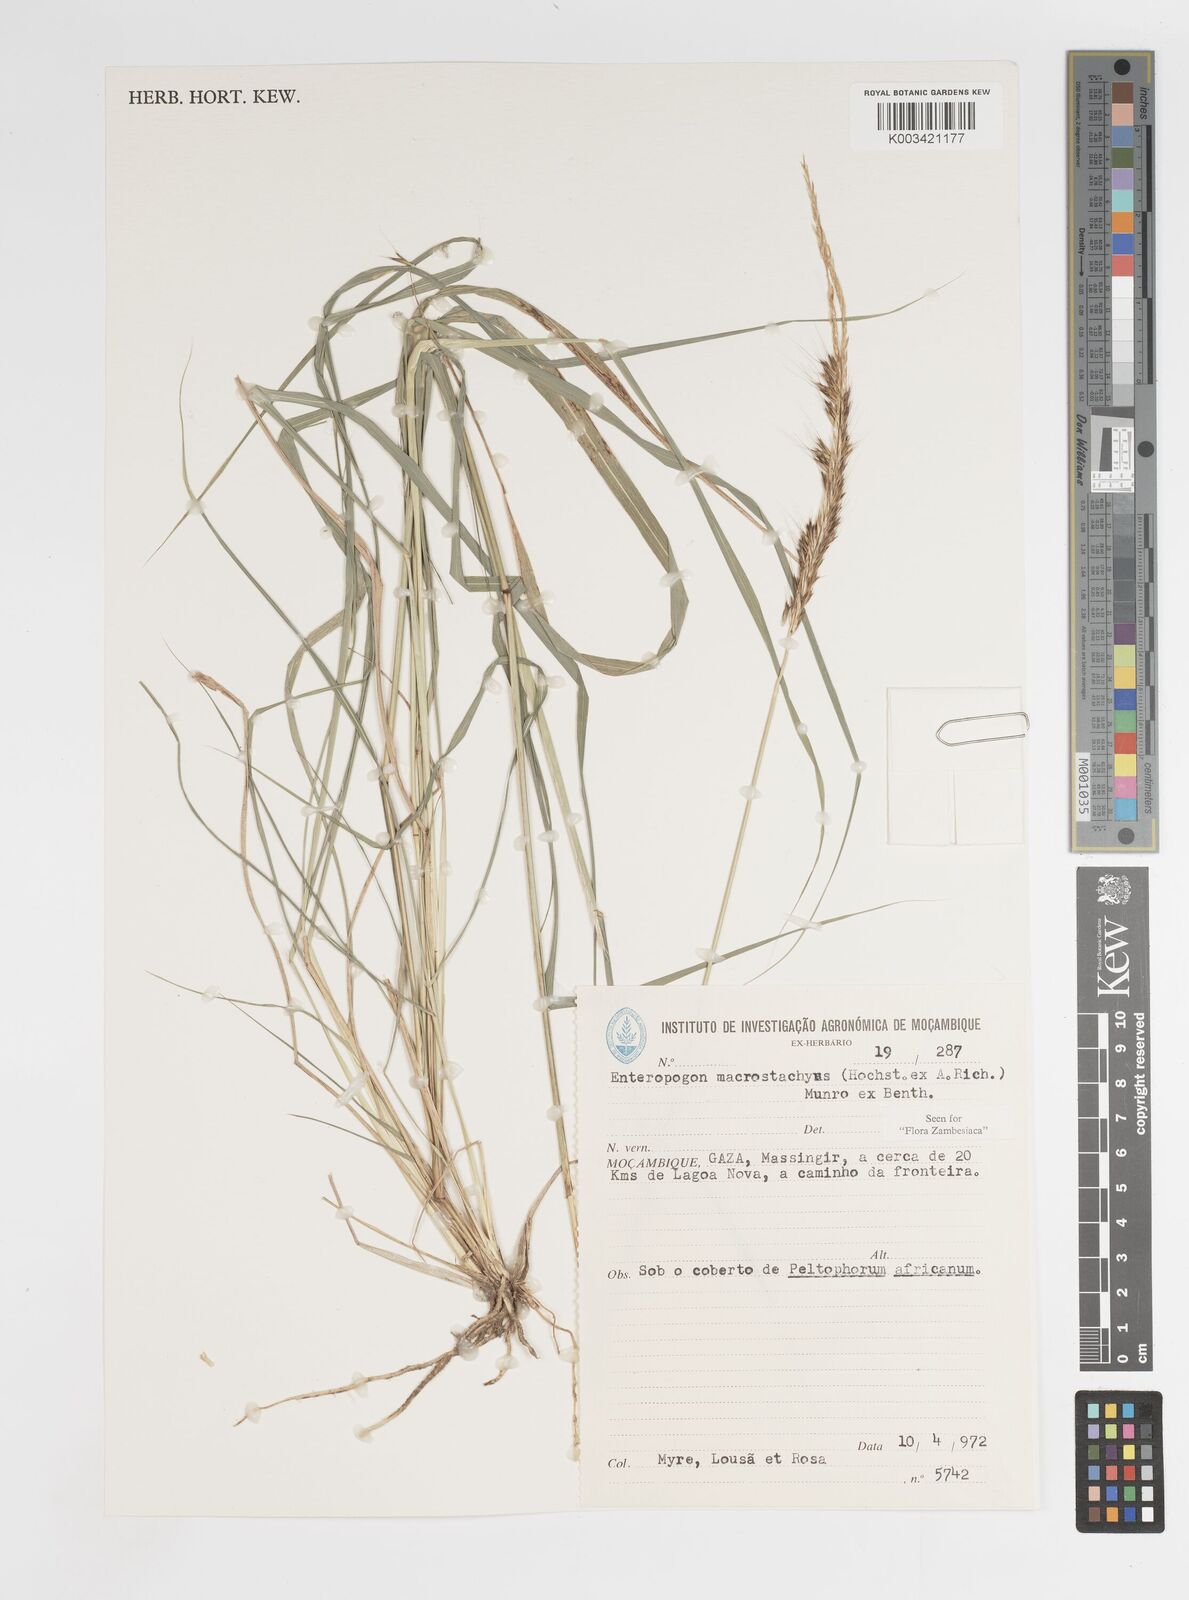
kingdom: Plantae
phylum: Tracheophyta
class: Liliopsida
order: Poales
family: Poaceae
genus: Enteropogon
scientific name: Enteropogon macrostachyus
